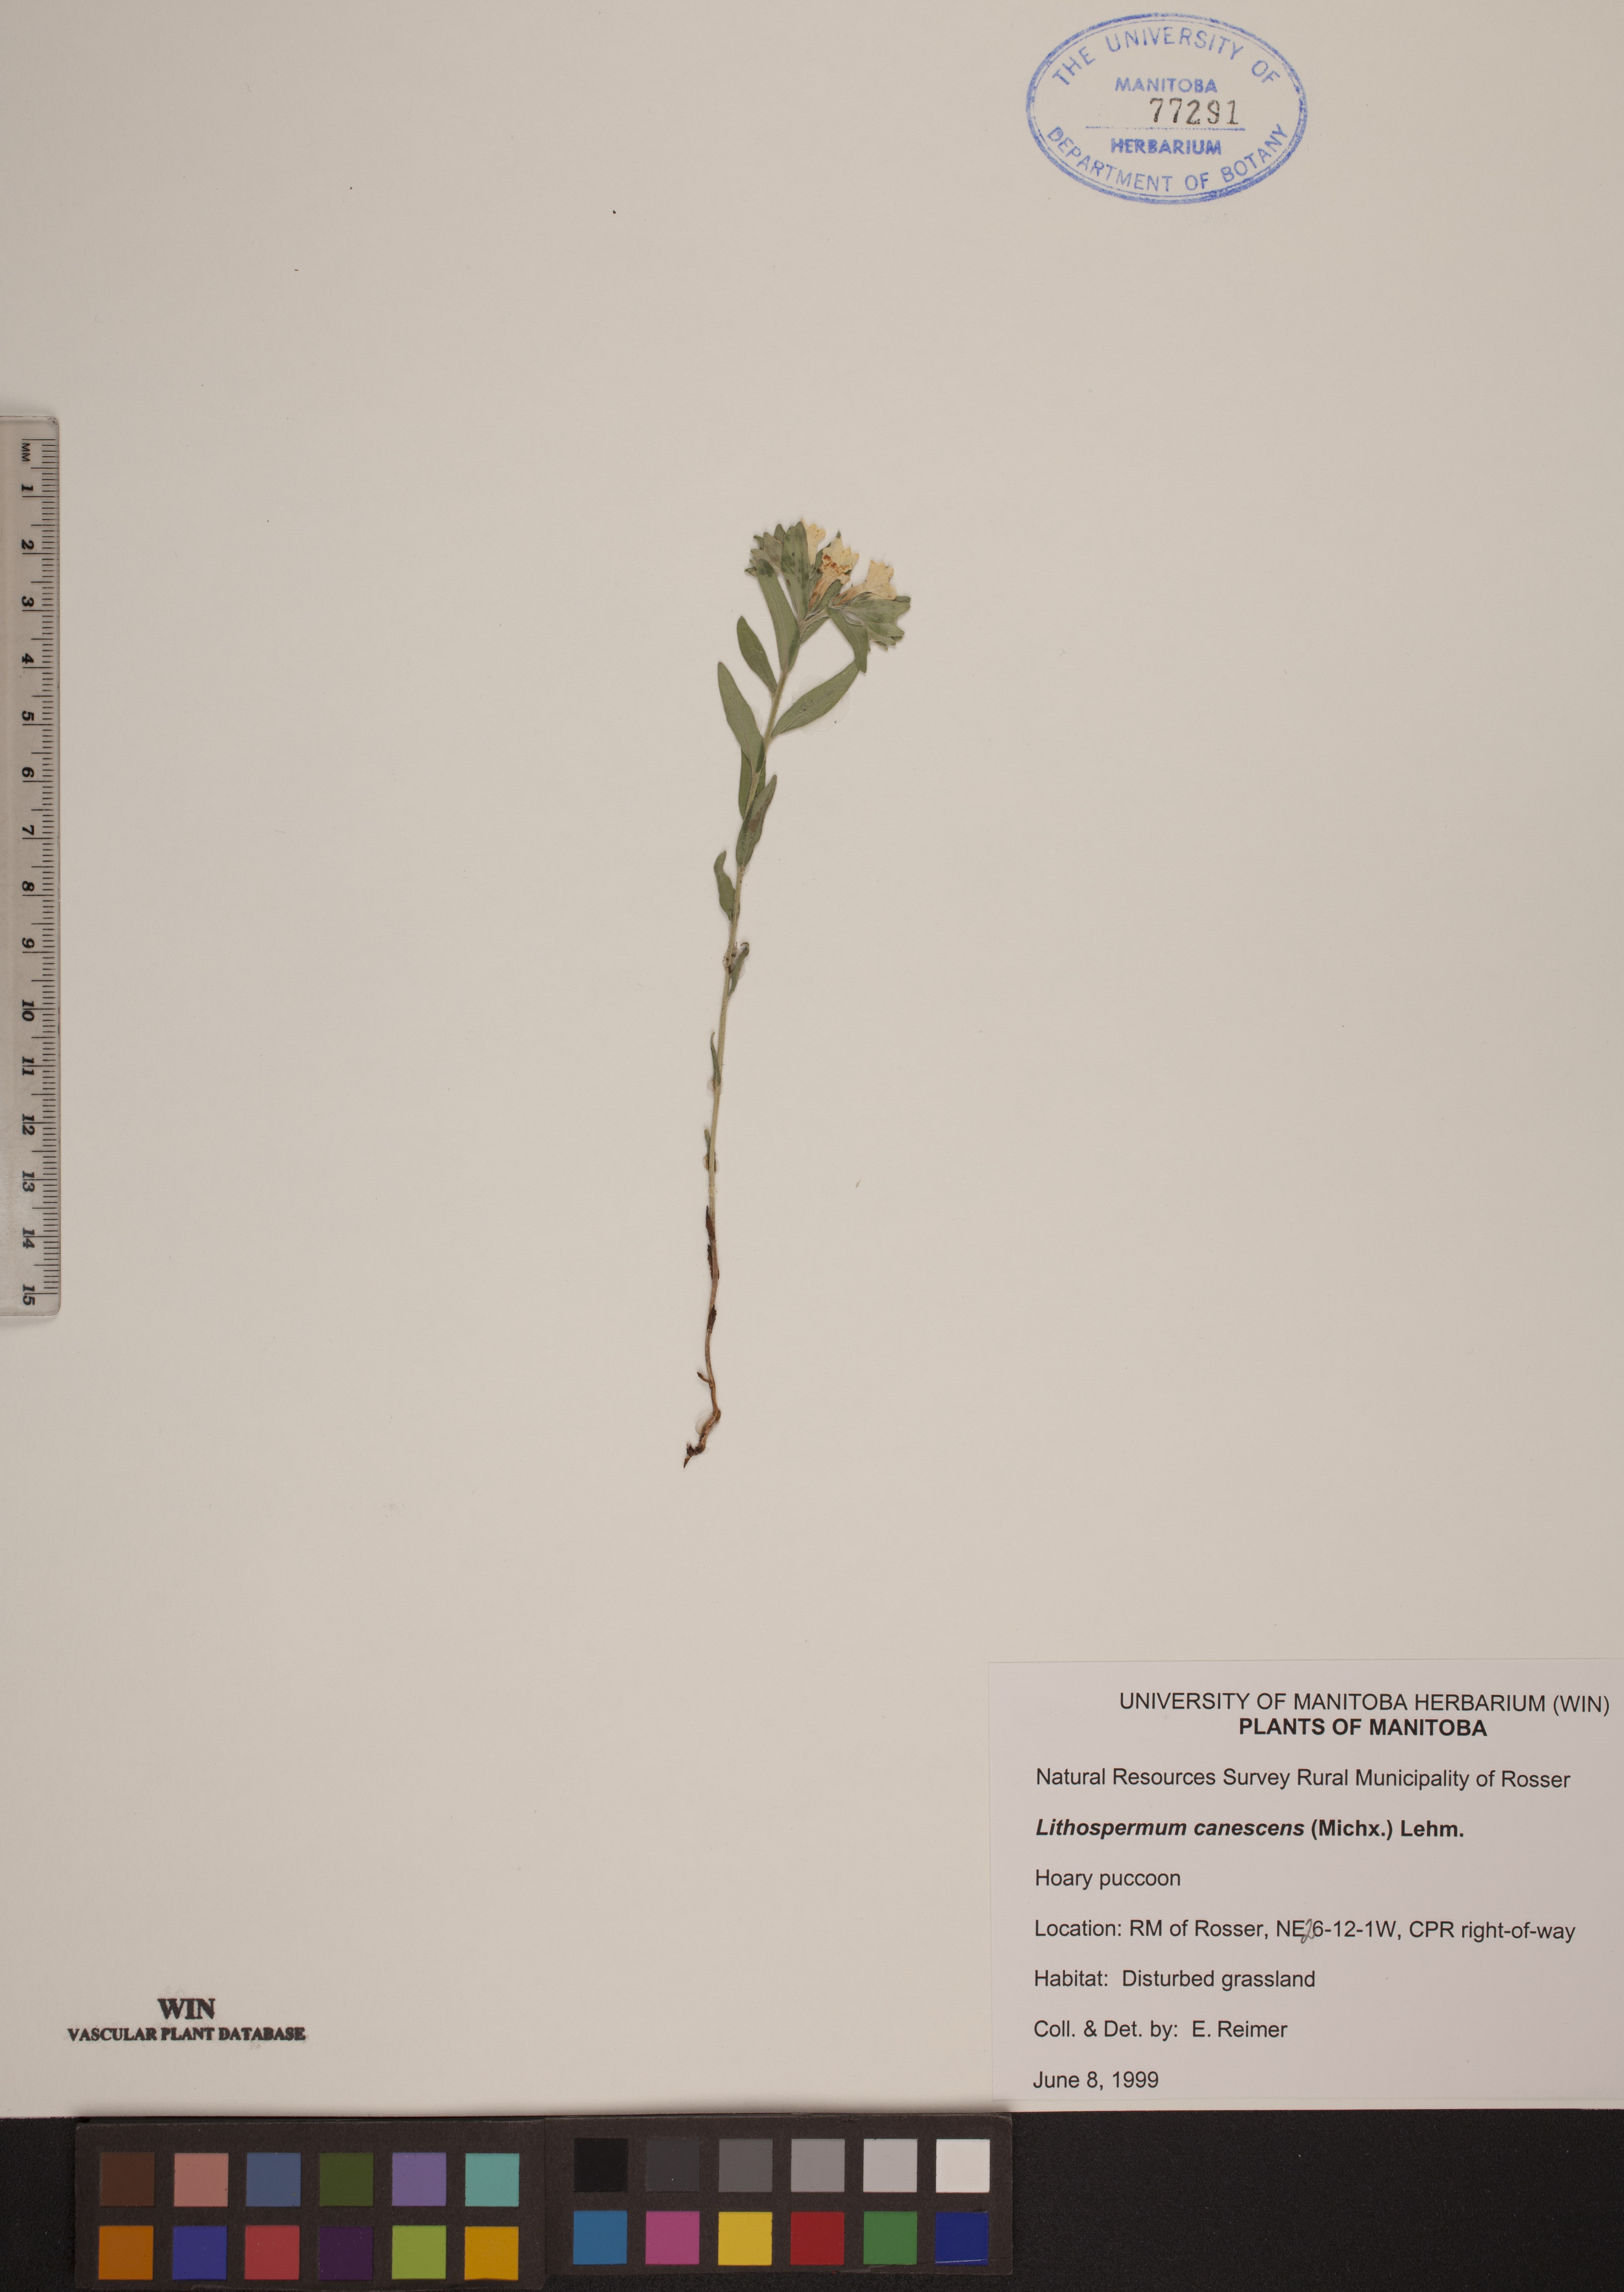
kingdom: Plantae
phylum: Tracheophyta
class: Magnoliopsida
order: Boraginales
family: Boraginaceae
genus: Lithospermum
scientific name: Lithospermum canescens
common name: Hoary puccoon
